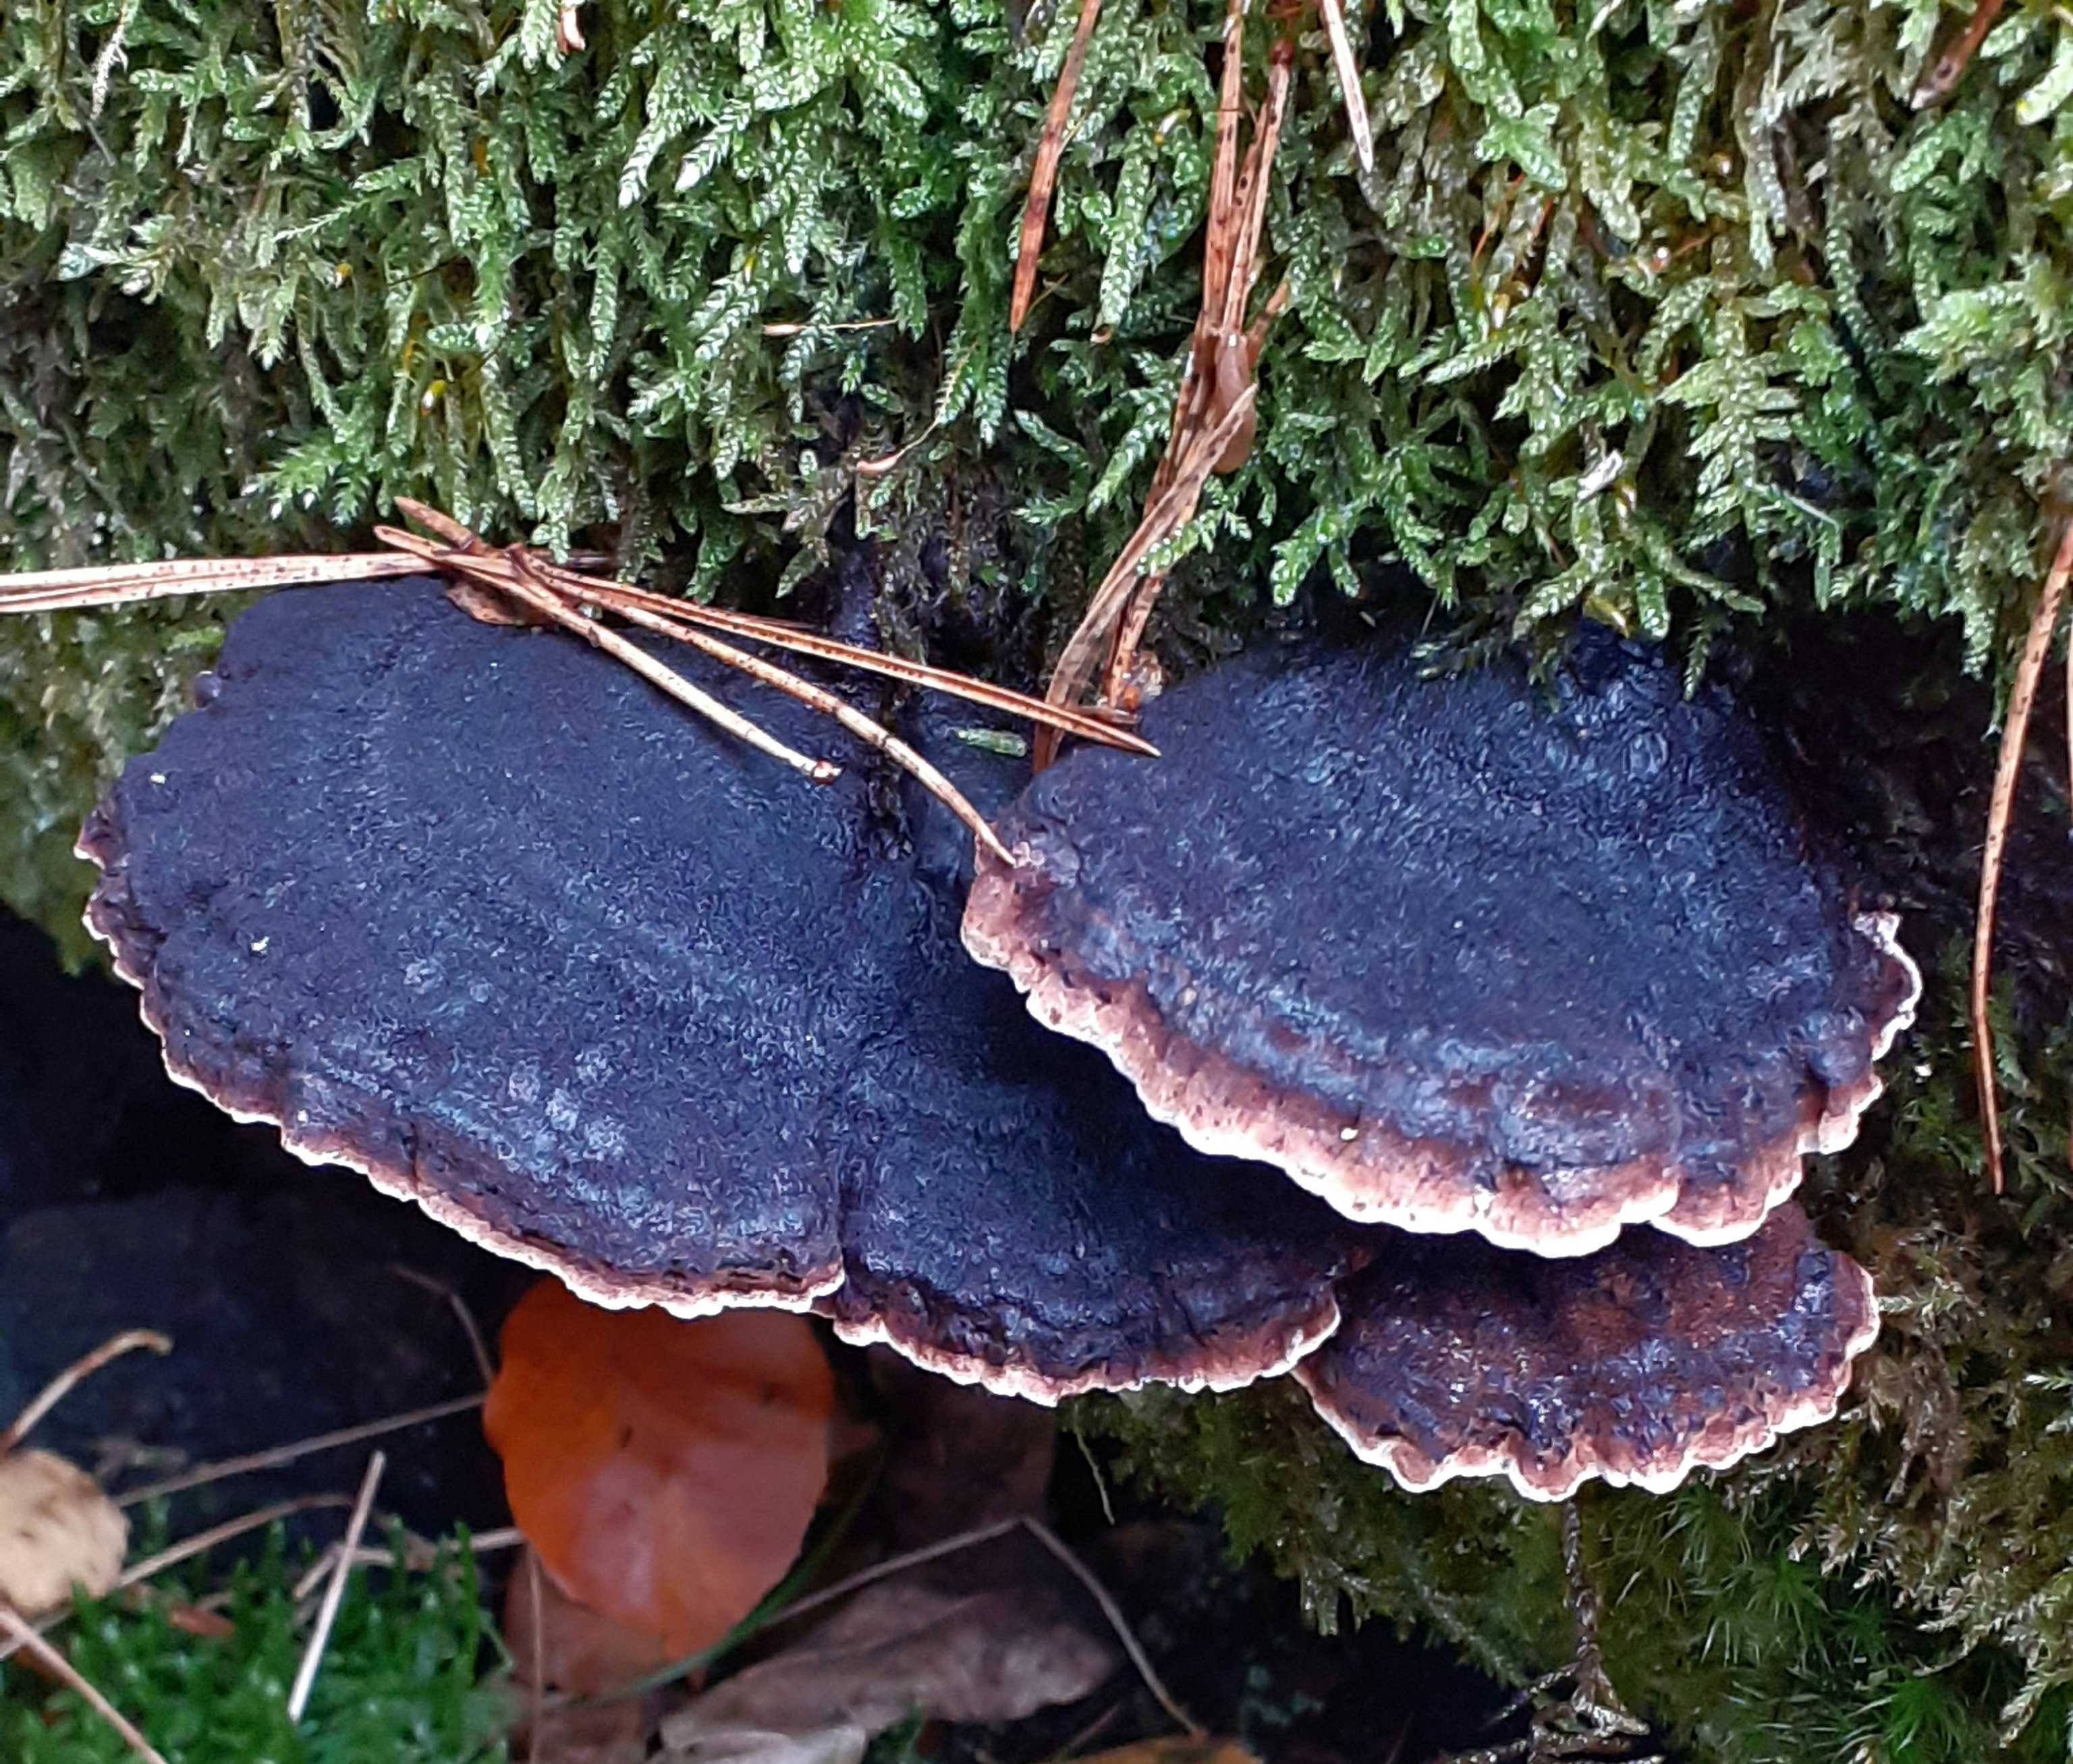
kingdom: Fungi
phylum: Basidiomycota
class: Agaricomycetes
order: Polyporales
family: Ischnodermataceae
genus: Ischnoderma
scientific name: Ischnoderma benzoinum
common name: gran-tjæreporesvamp
